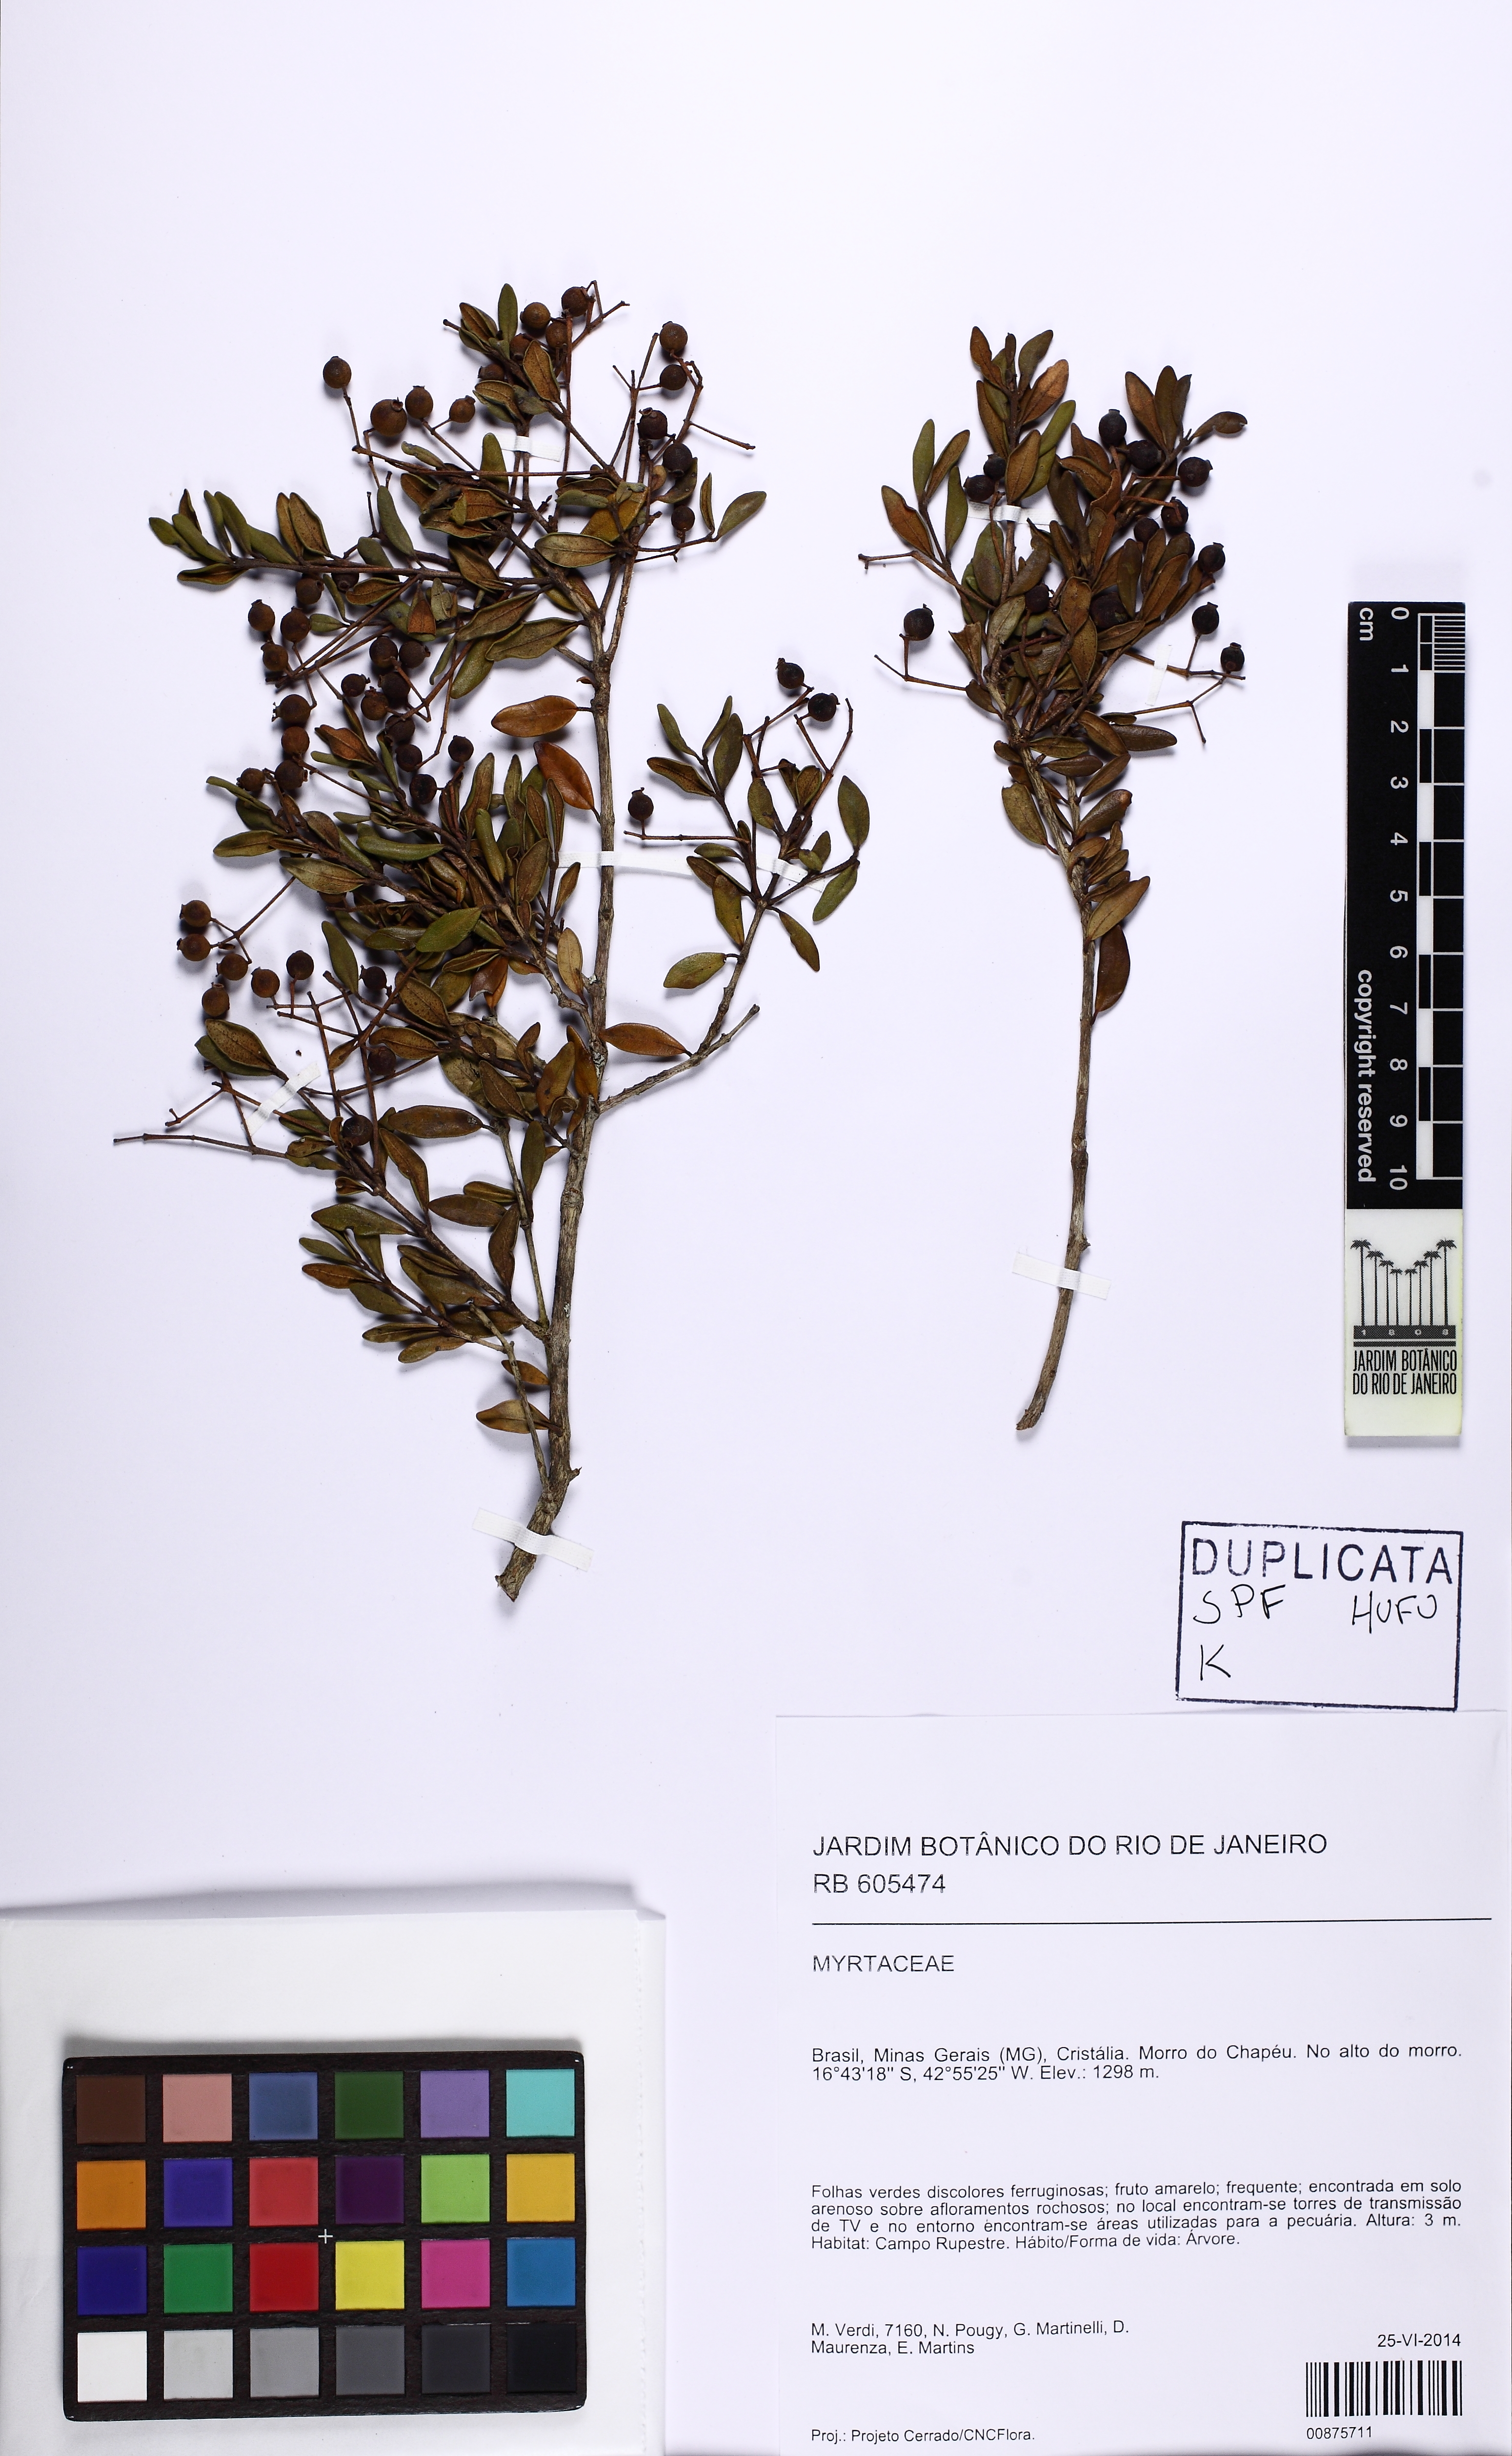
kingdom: Plantae
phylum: Tracheophyta
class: Magnoliopsida
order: Myrtales
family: Myrtaceae
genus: Myrcia
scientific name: Myrcia densa
